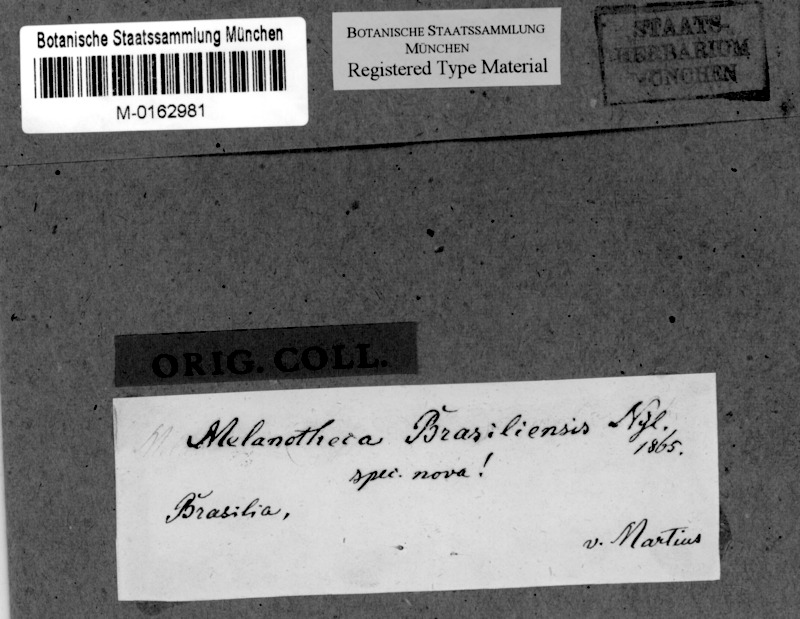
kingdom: Fungi
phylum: Ascomycota
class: Dothideomycetes
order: Pleosporales
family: Naetrocymbaceae
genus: Tomasellia
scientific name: Tomasellia
